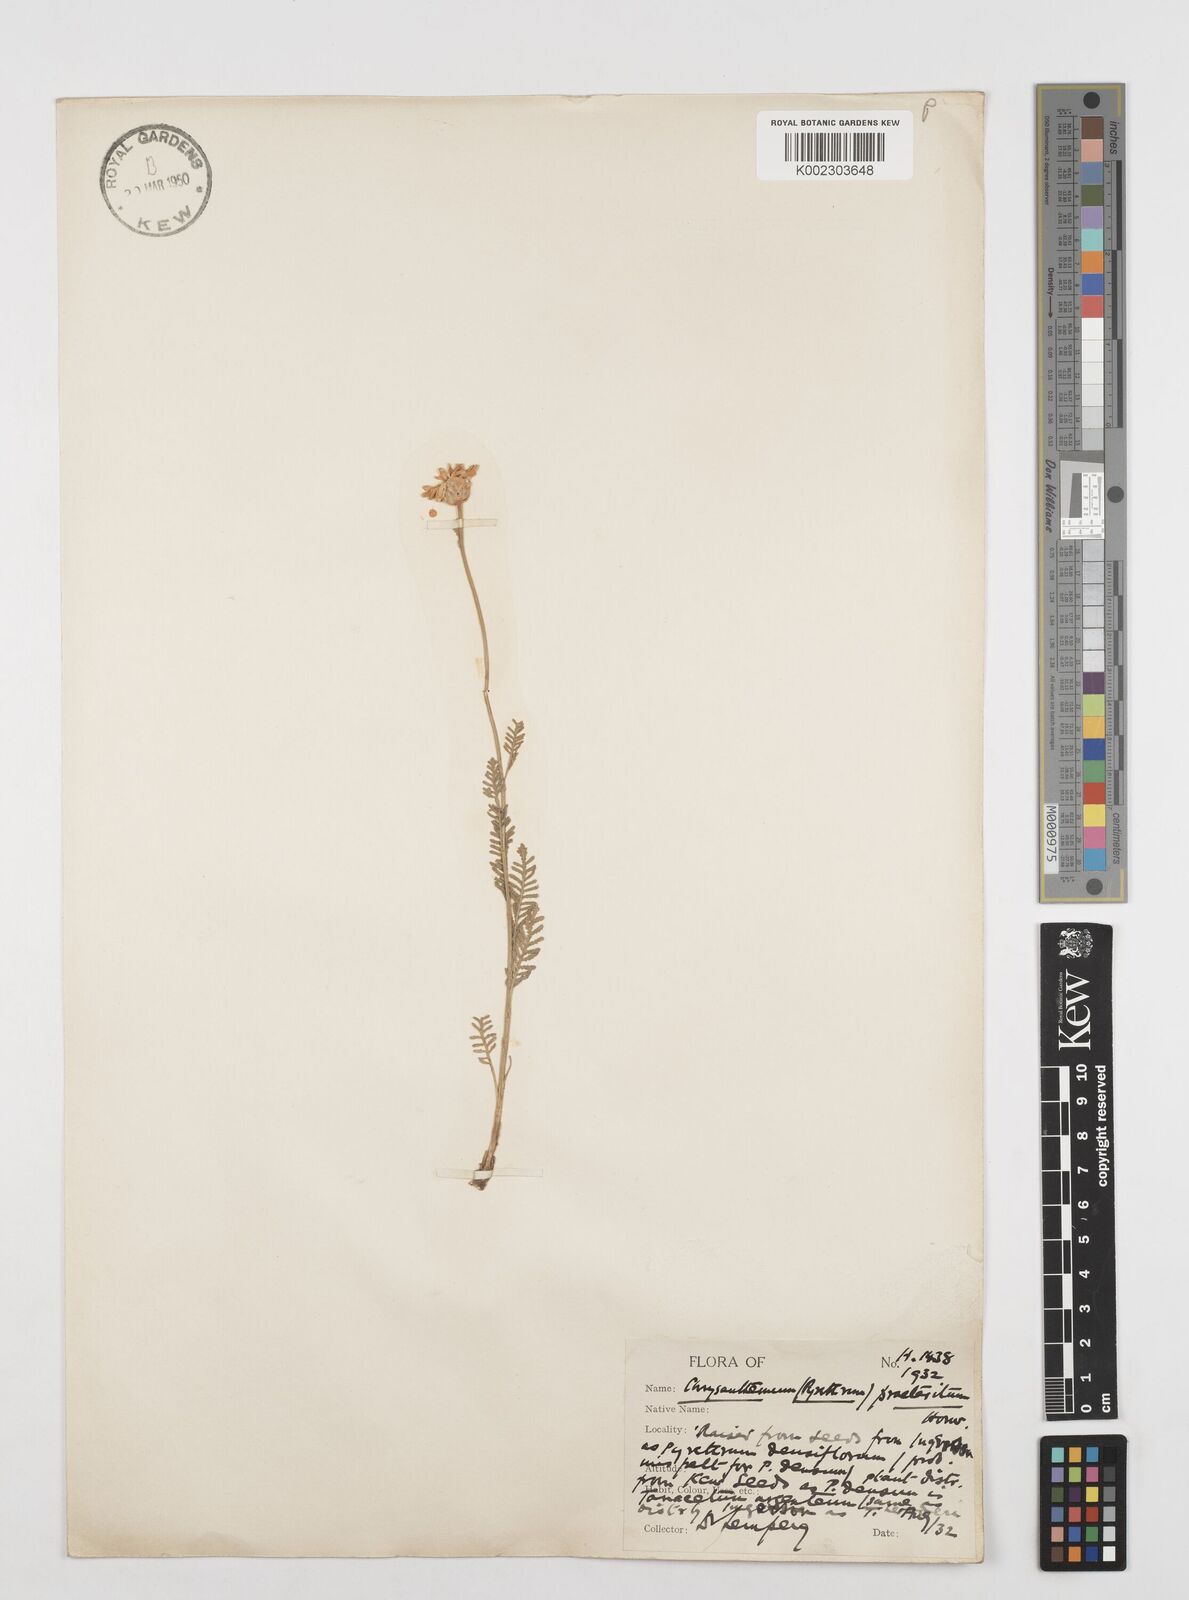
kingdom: Plantae
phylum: Tracheophyta
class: Magnoliopsida
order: Asterales
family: Asteraceae
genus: Tanacetum
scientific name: Tanacetum praeteritum
